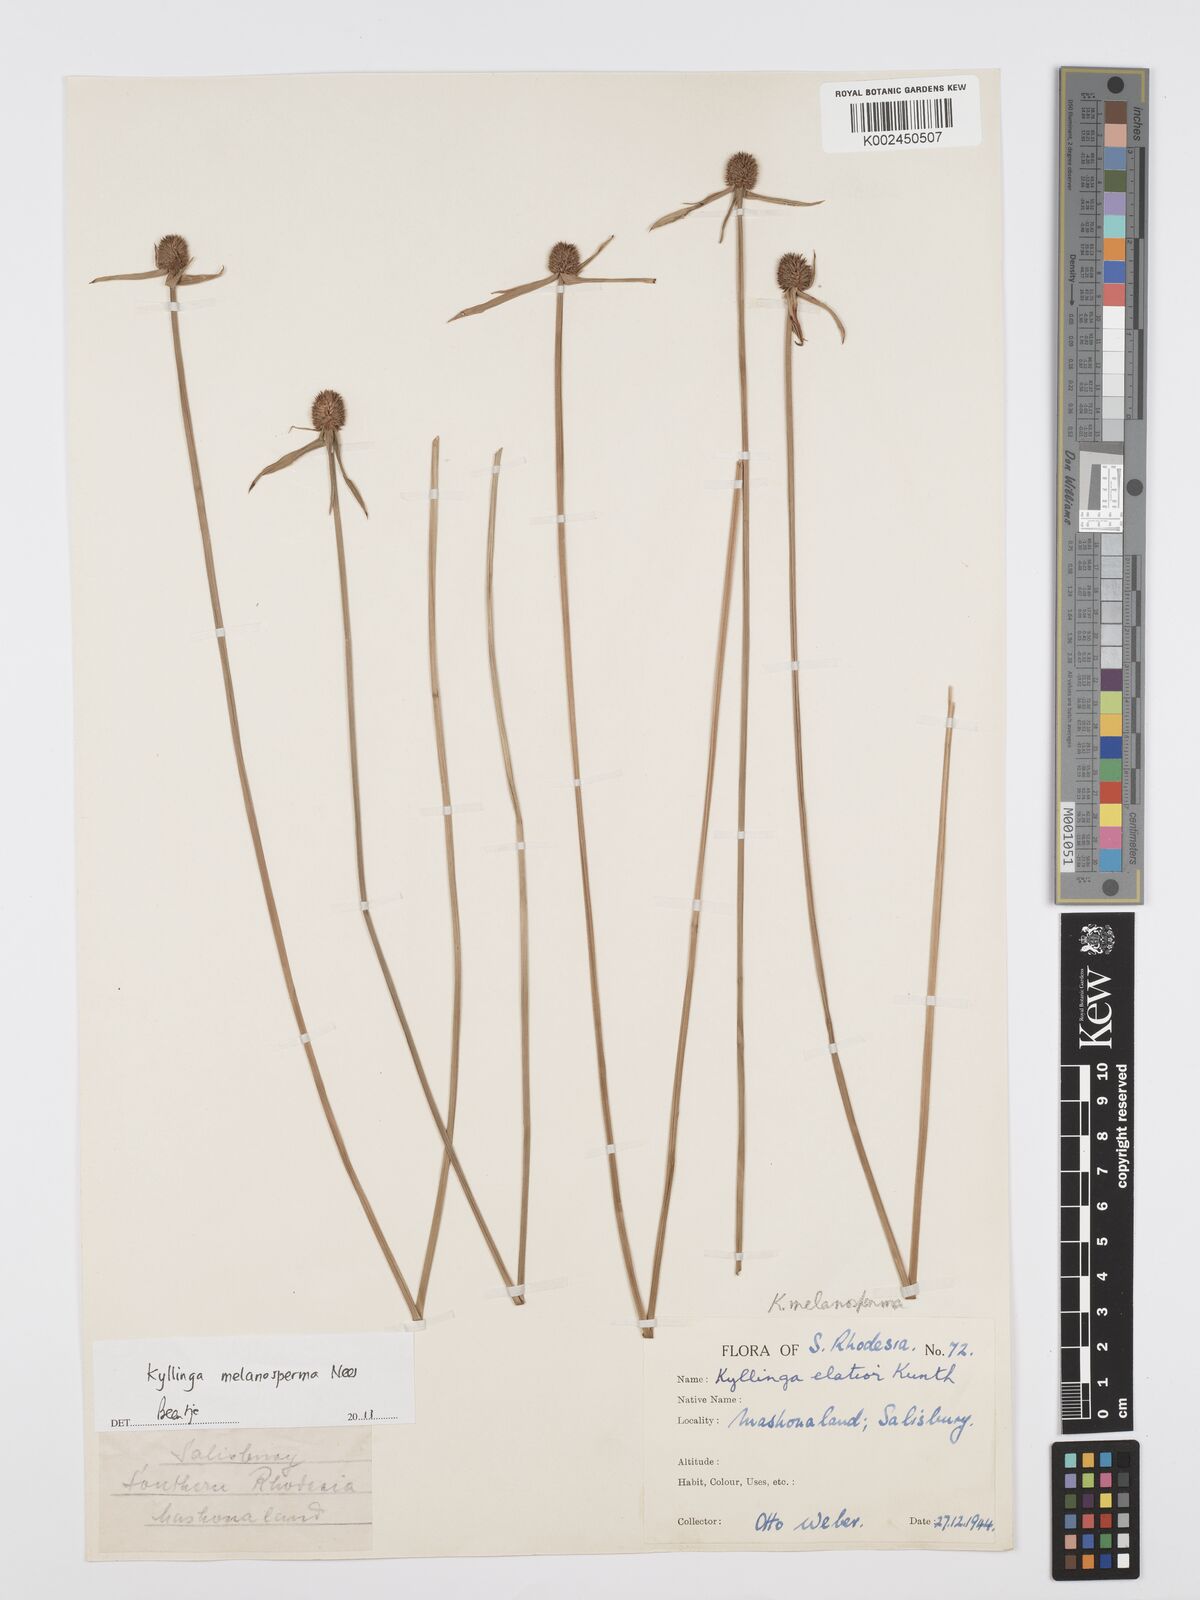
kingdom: Plantae
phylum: Tracheophyta
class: Liliopsida
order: Poales
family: Cyperaceae
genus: Cyperus
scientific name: Cyperus melanospermus
